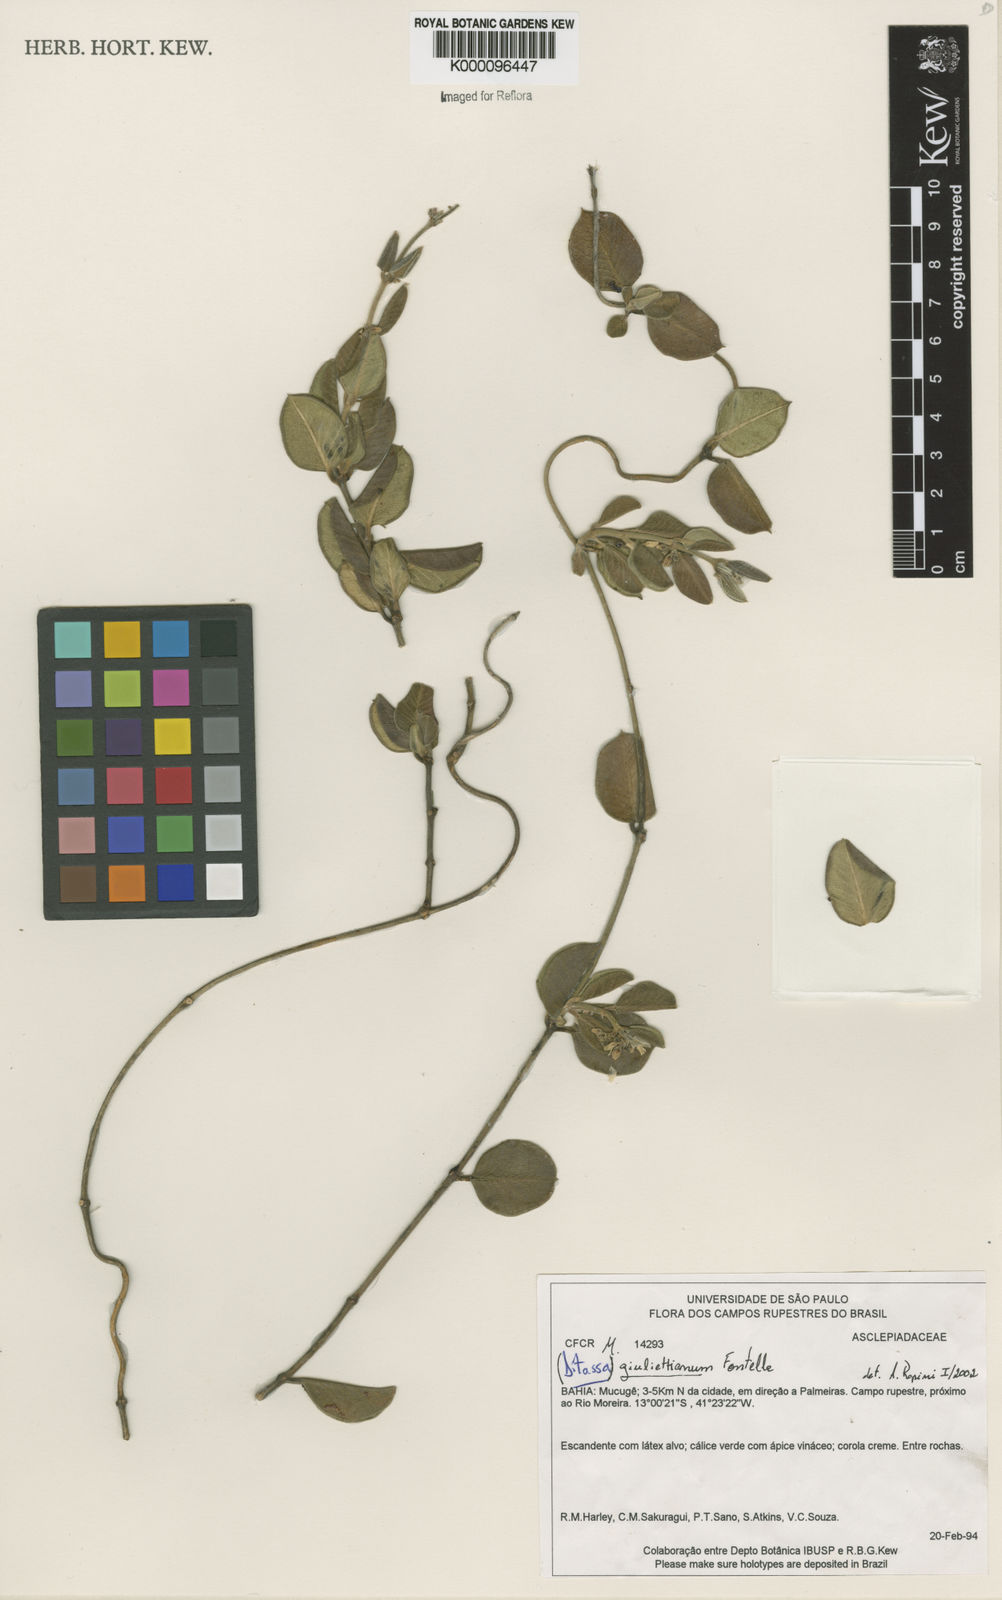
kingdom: Plantae
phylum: Tracheophyta
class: Magnoliopsida
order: Gentianales
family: Apocynaceae
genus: Metastelma
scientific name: Metastelma giuliettianum
